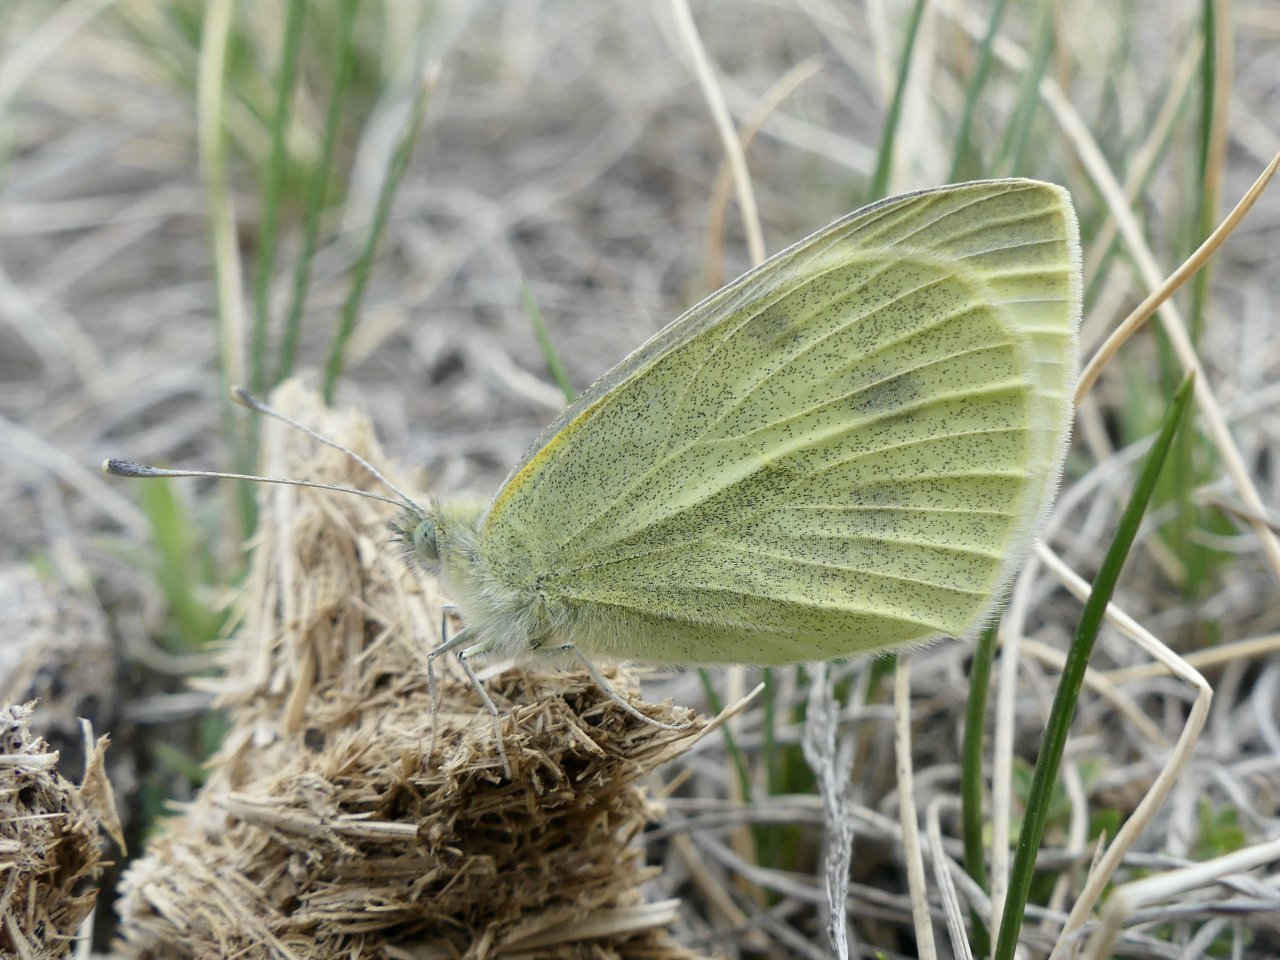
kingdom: Animalia
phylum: Arthropoda
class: Insecta
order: Lepidoptera
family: Pieridae
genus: Pieris
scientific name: Pieris rapae
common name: Cabbage White
